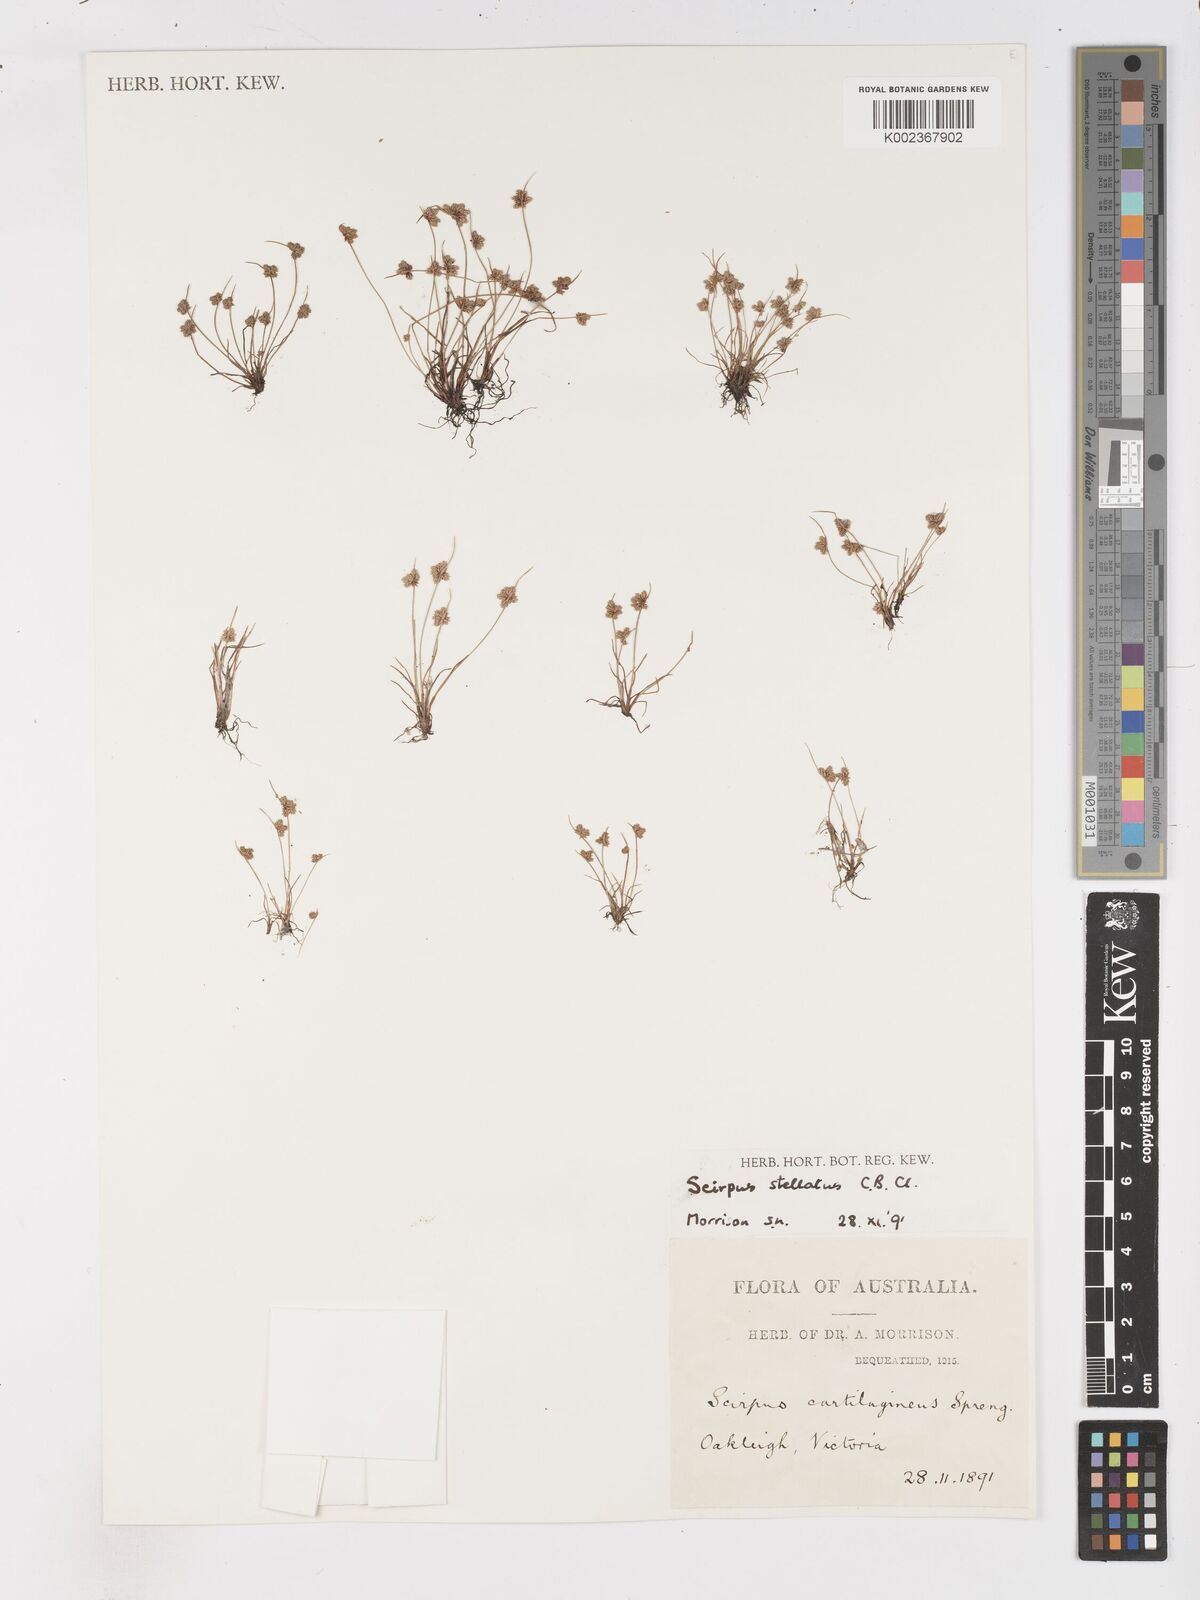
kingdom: Plantae
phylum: Tracheophyta
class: Liliopsida
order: Poales
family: Cyperaceae
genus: Isolepis
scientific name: Isolepis stellata
